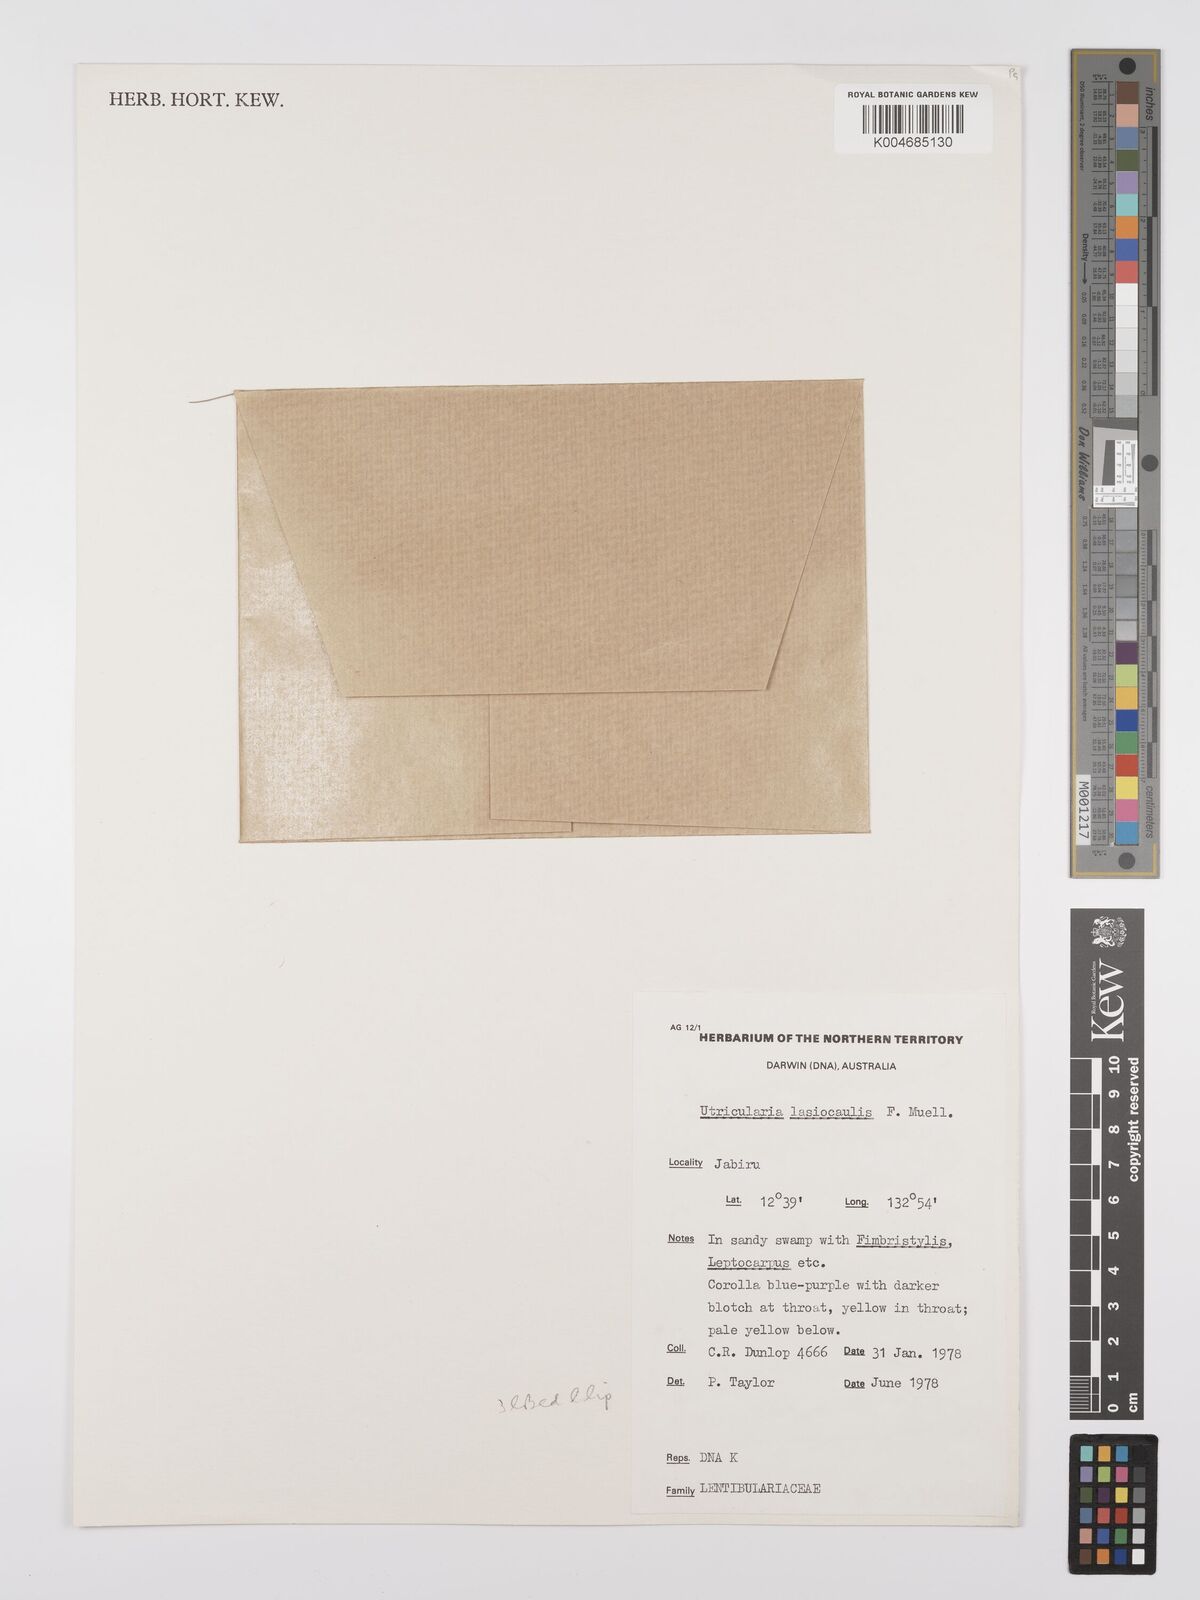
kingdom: Plantae
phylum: Tracheophyta
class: Magnoliopsida
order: Lamiales
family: Lentibulariaceae
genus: Utricularia
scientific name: Utricularia lasiocaulis
